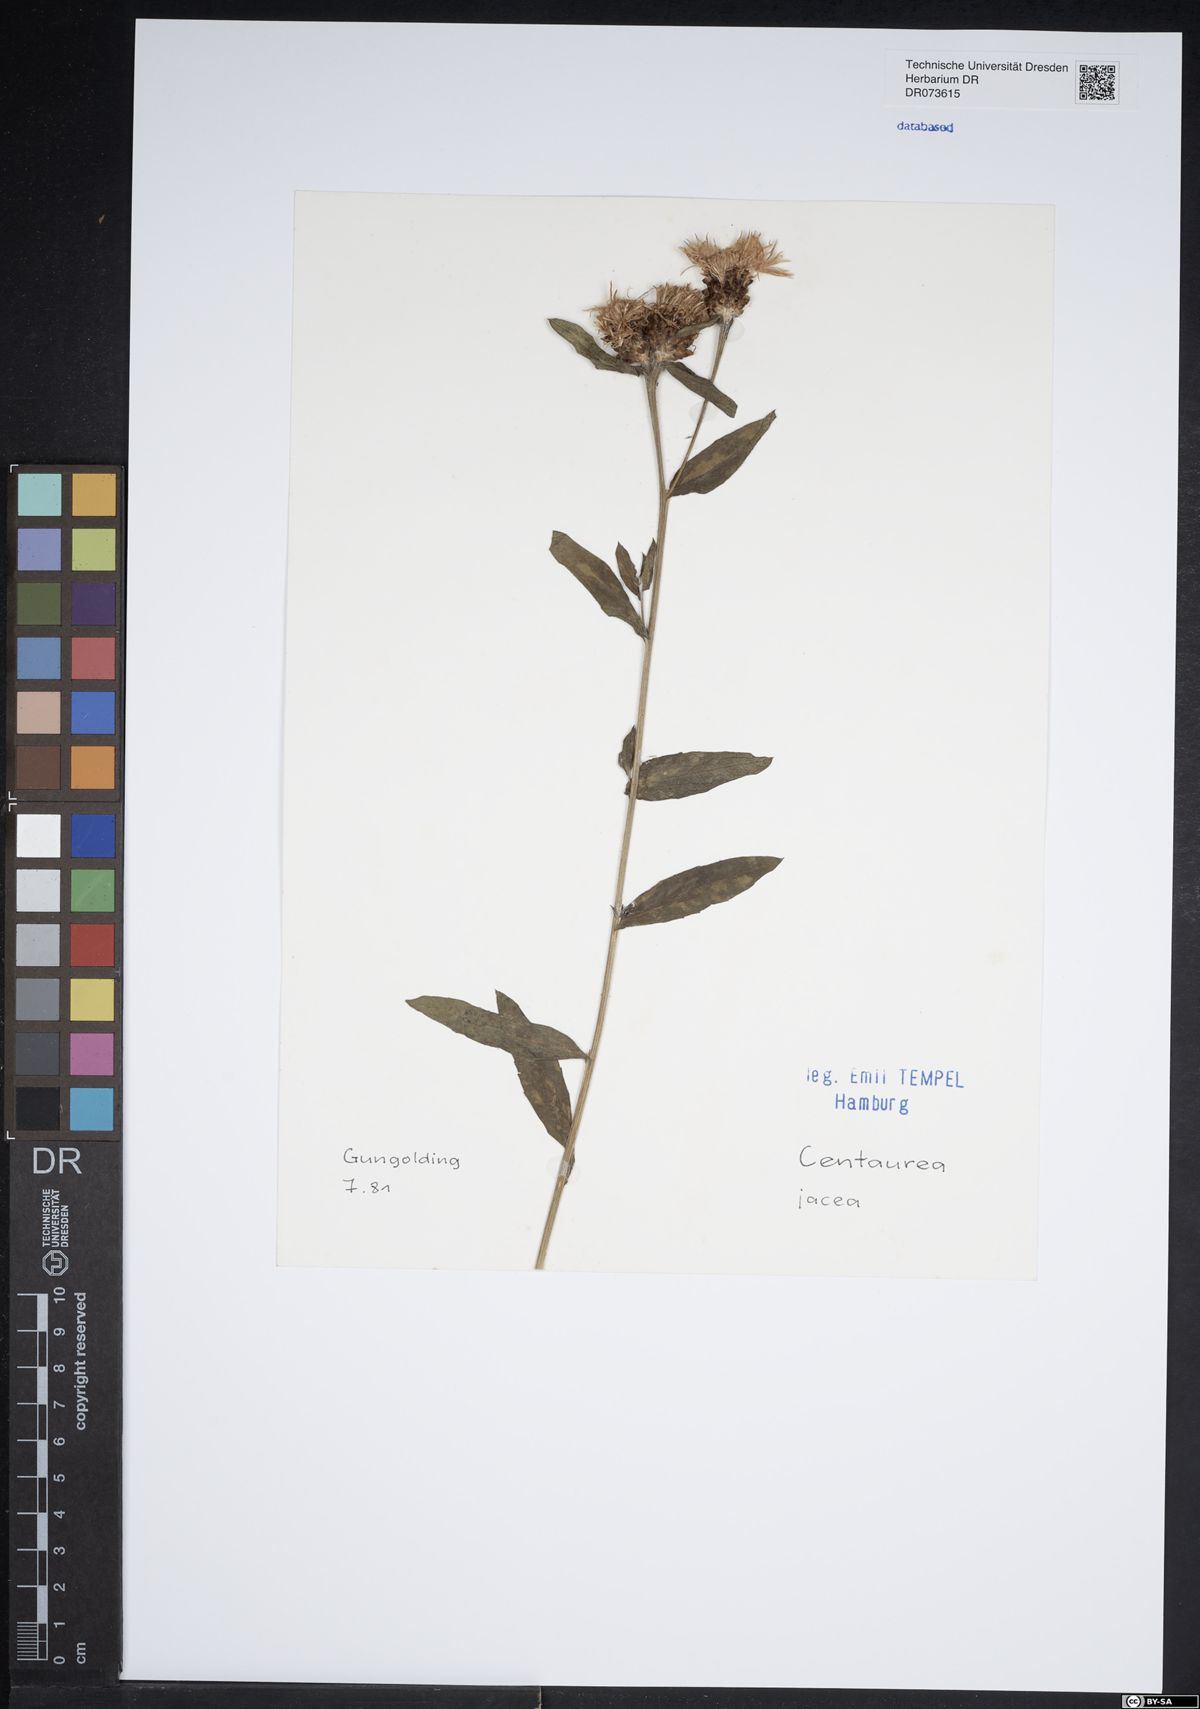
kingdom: Plantae
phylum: Tracheophyta
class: Magnoliopsida
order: Asterales
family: Asteraceae
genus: Centaurea
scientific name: Centaurea jacea
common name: Brown knapweed
